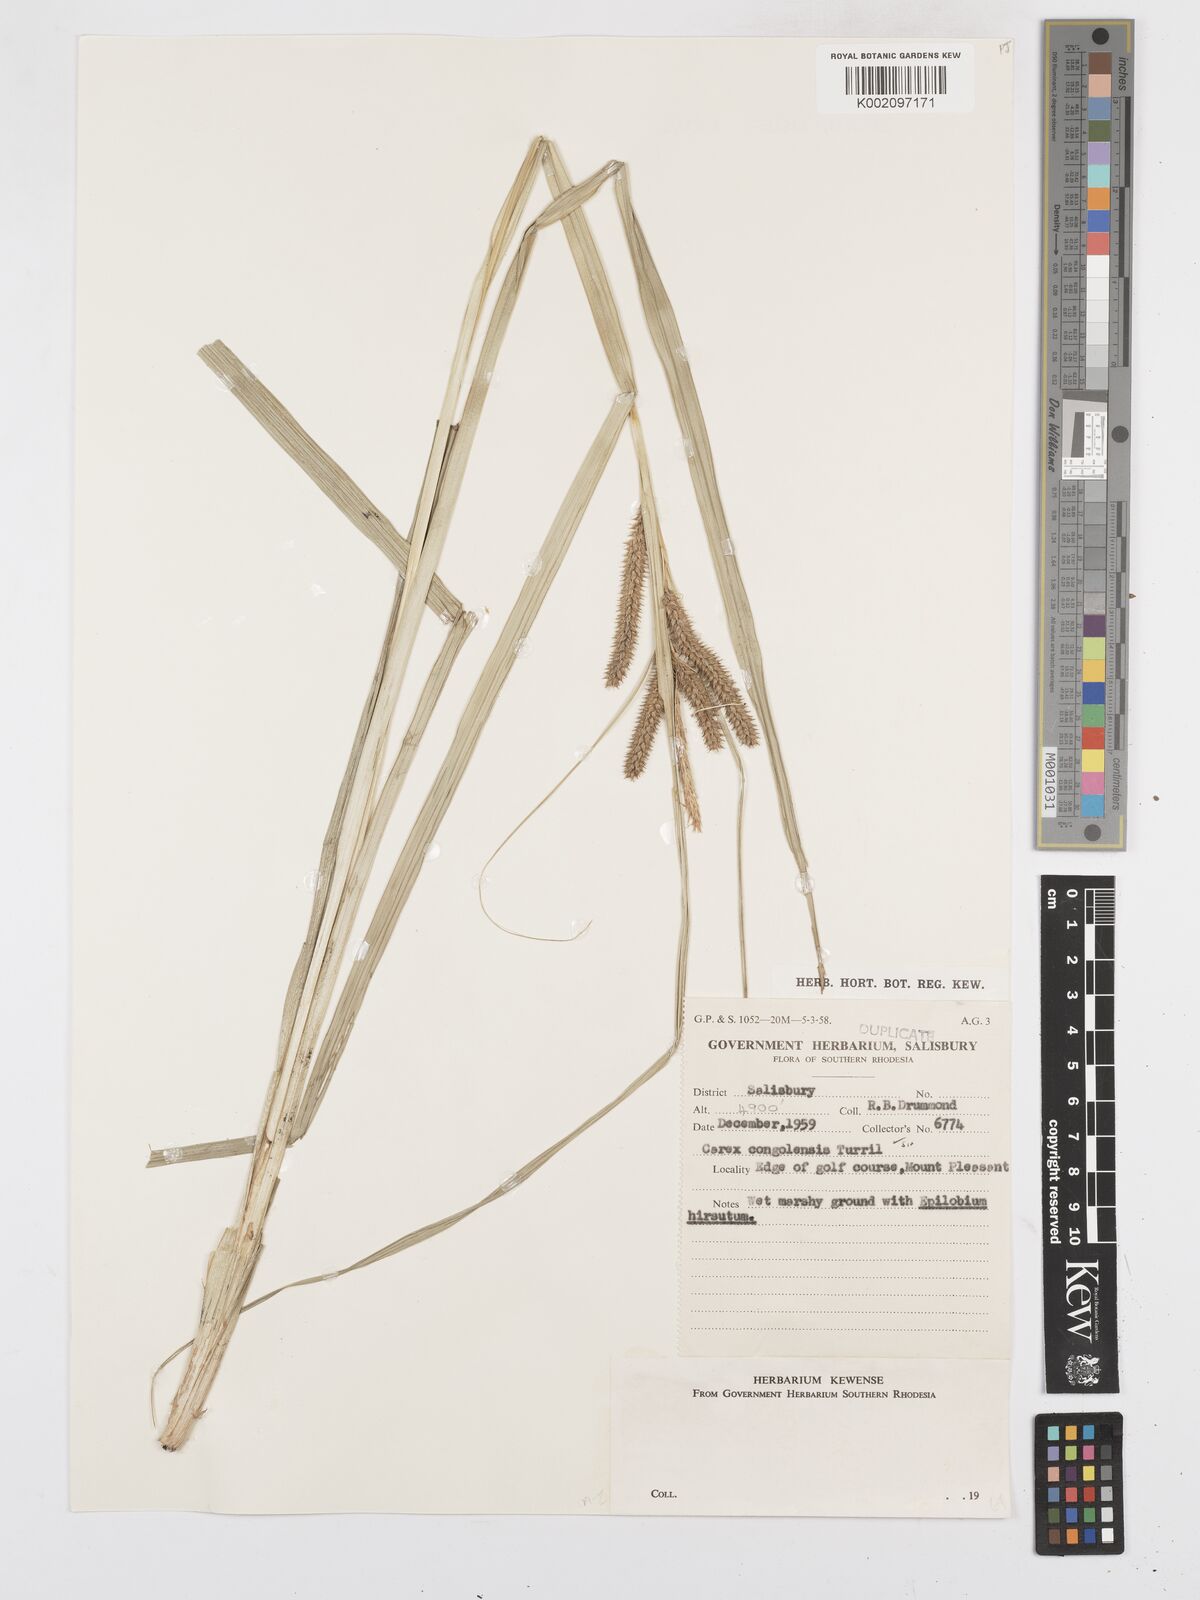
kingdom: Plantae
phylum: Tracheophyta
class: Liliopsida
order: Poales
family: Cyperaceae
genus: Carex
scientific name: Carex congolensis
